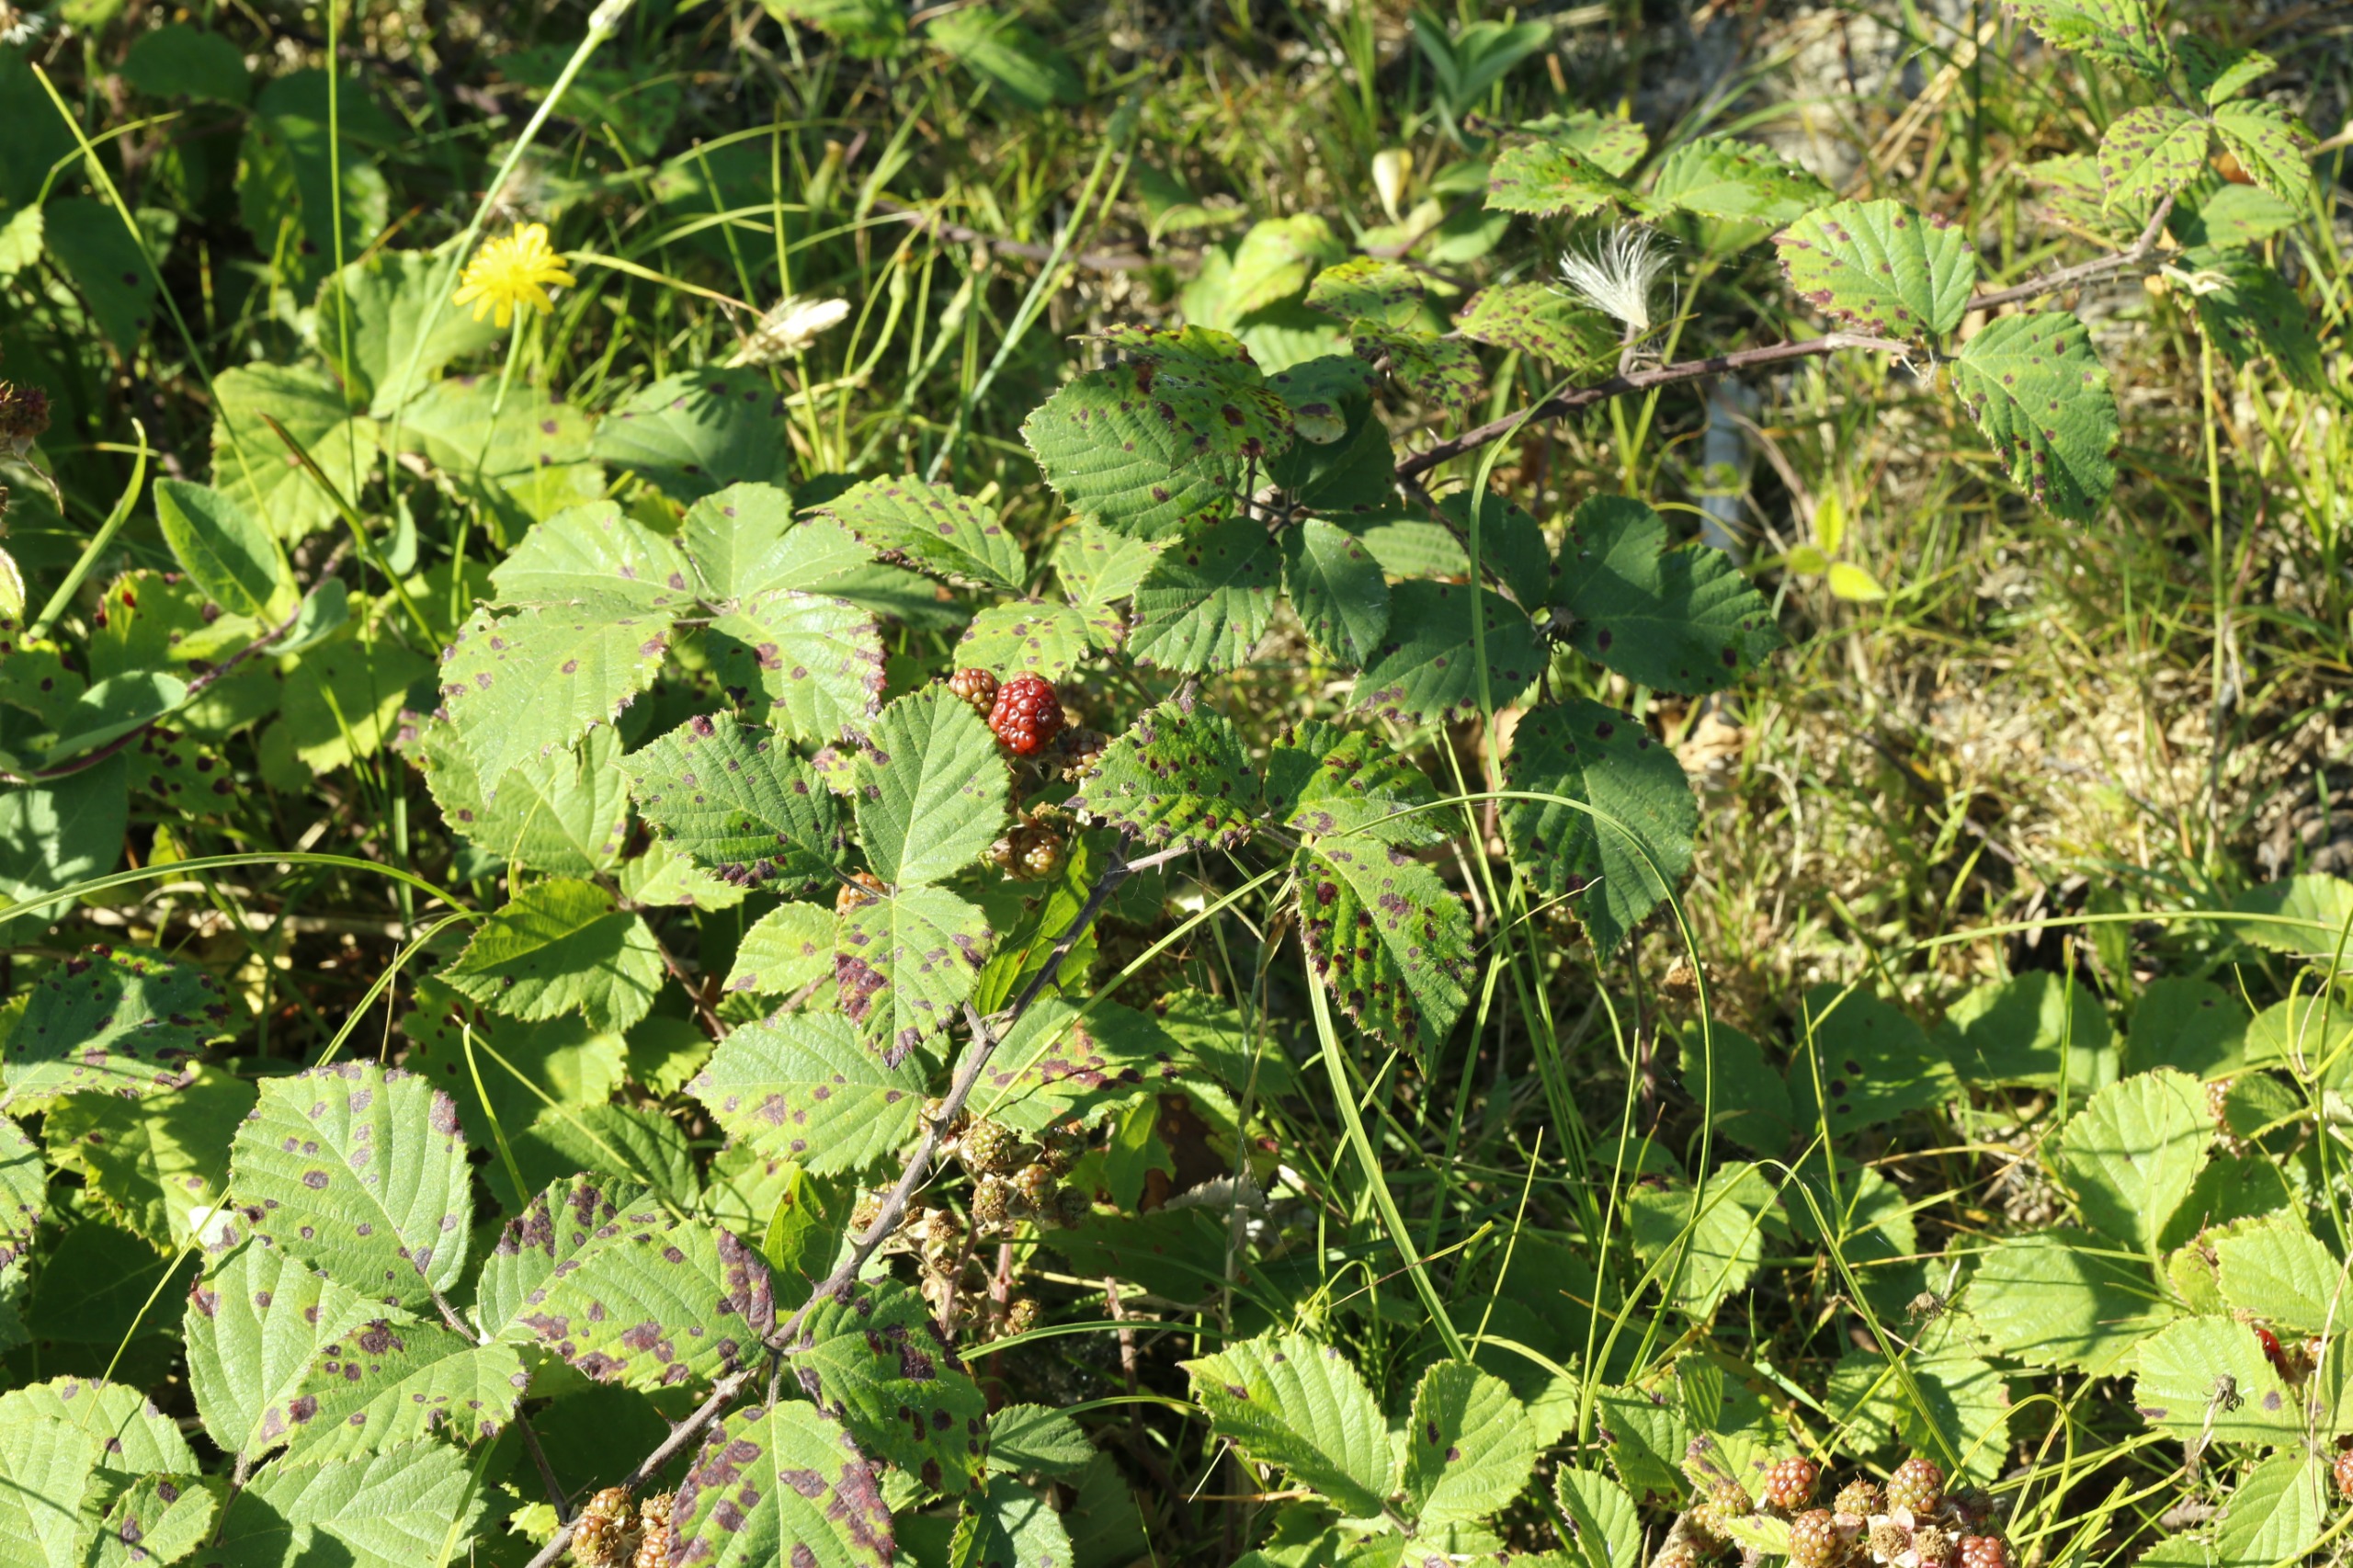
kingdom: Plantae
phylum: Tracheophyta
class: Magnoliopsida
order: Rosales
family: Rosaceae
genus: Rubus
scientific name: Rubus
